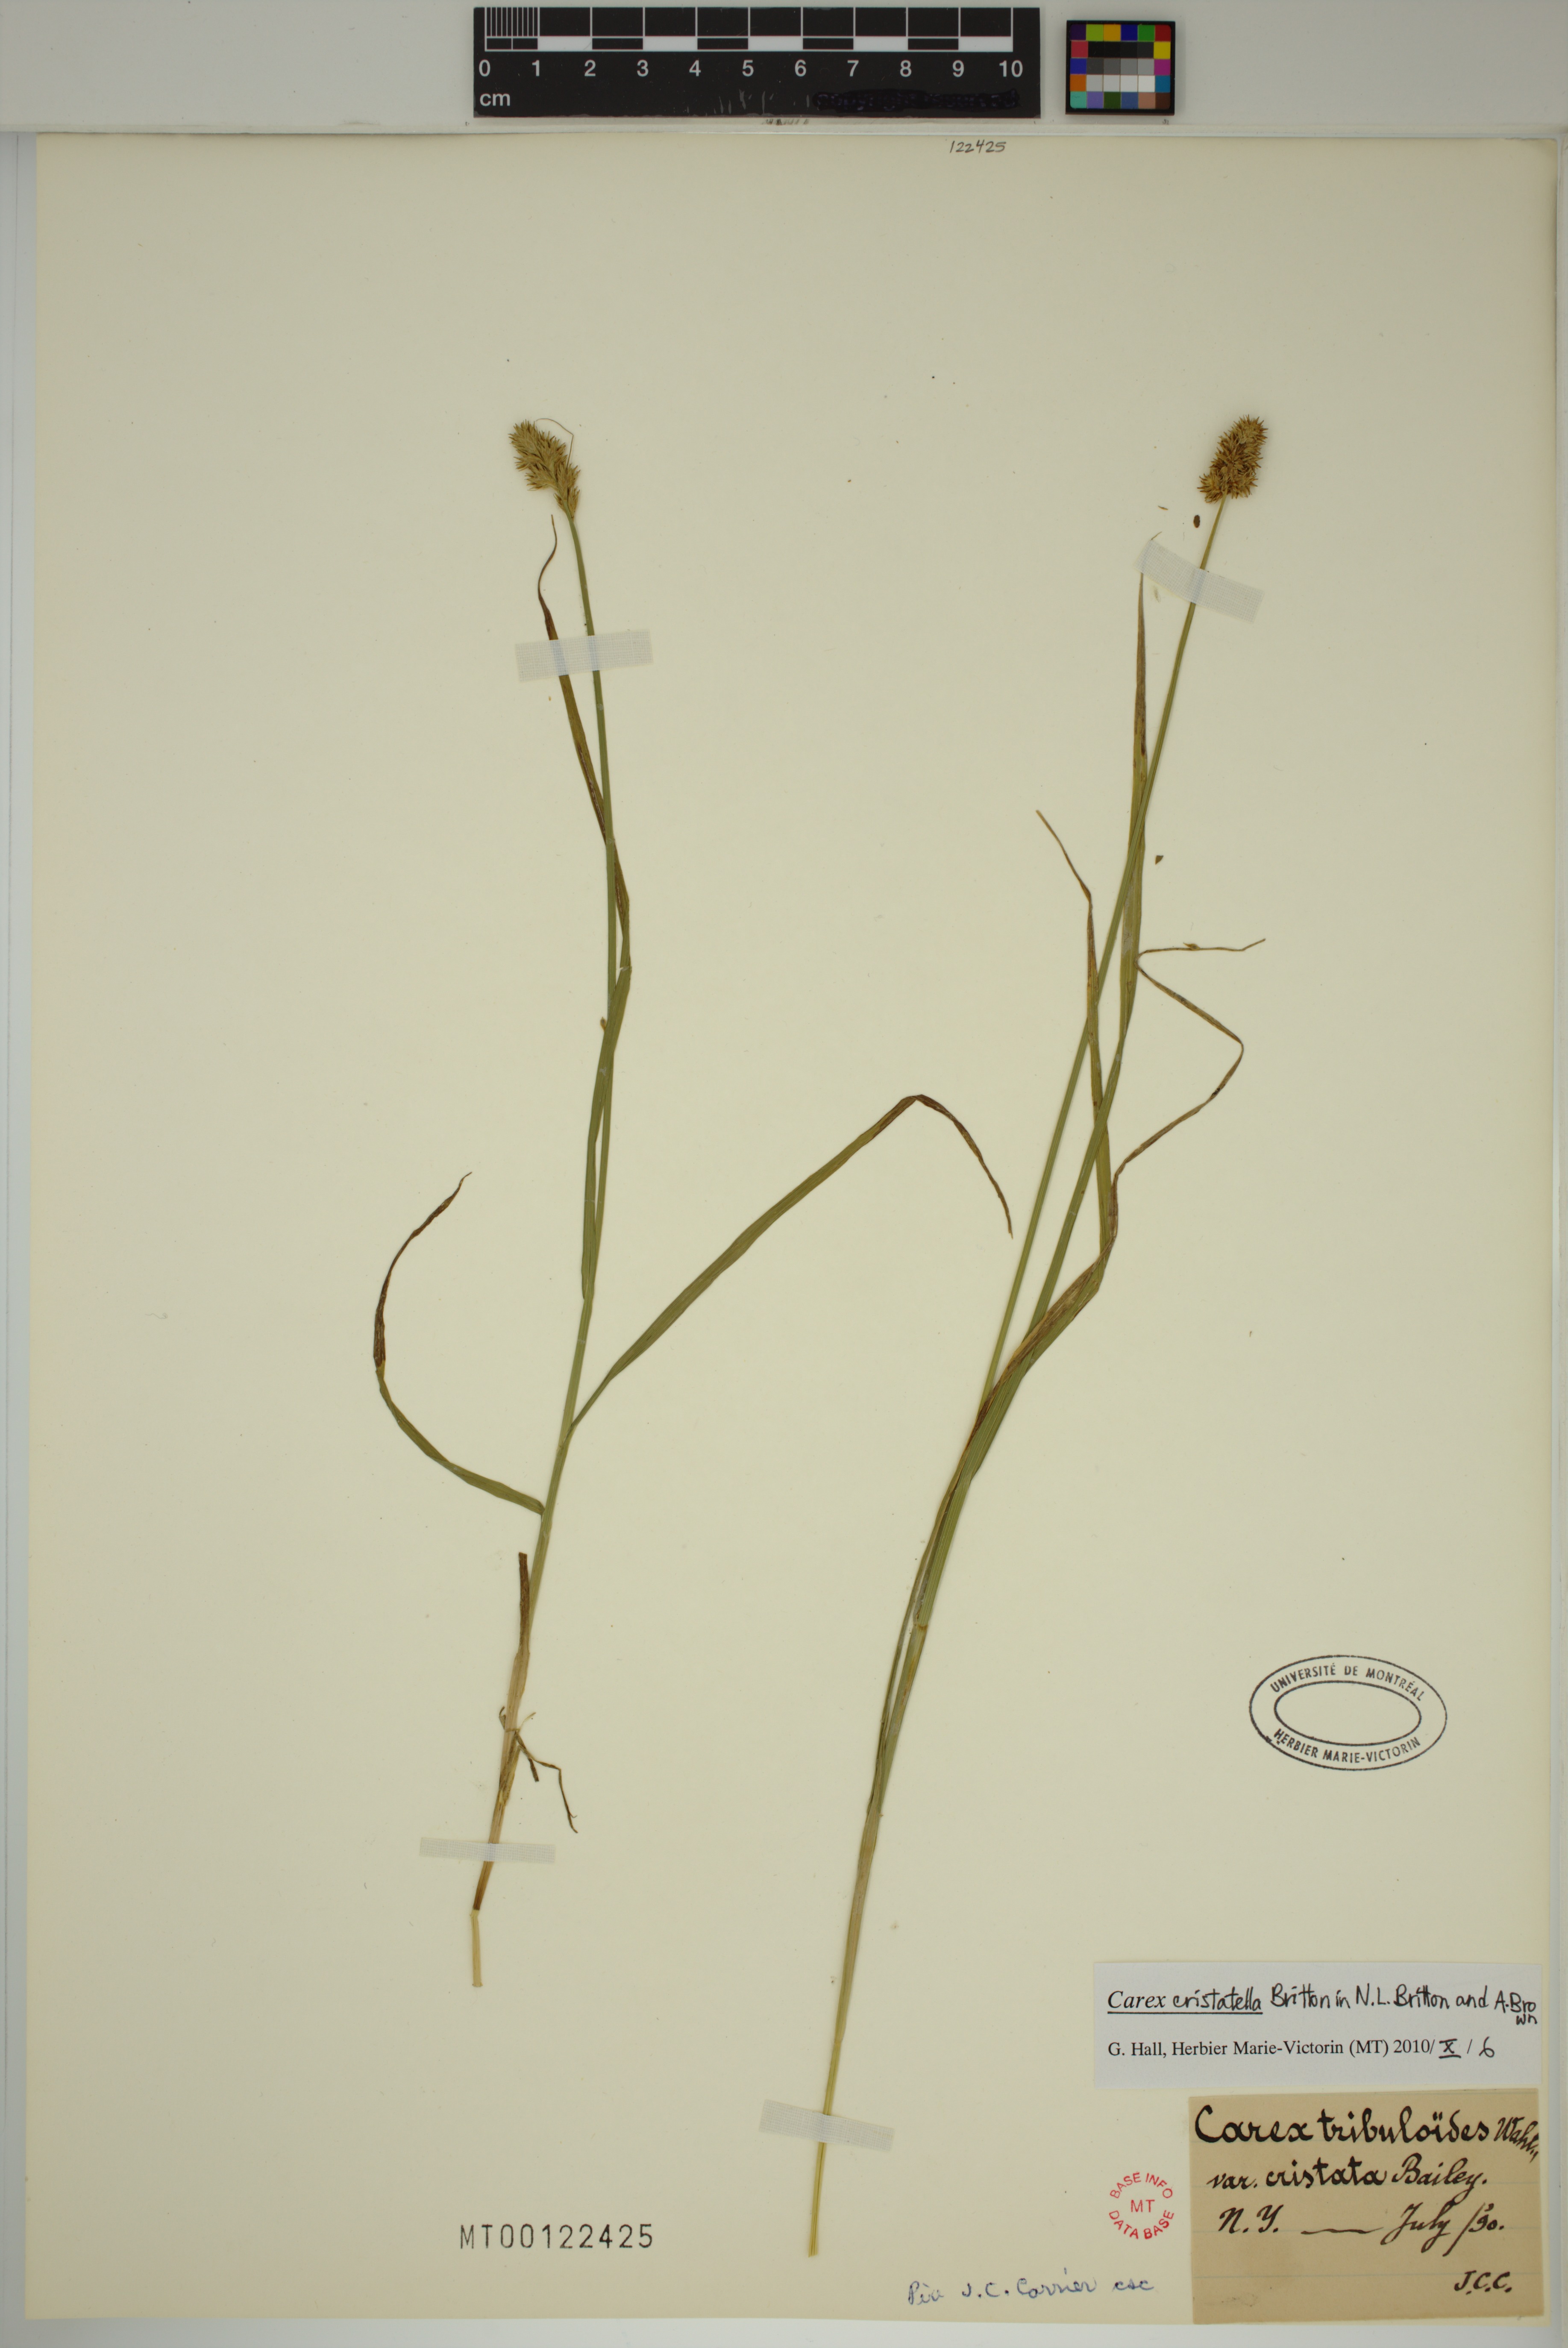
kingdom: Plantae
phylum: Tracheophyta
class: Liliopsida
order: Poales
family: Cyperaceae
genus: Carex
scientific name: Carex cristatella
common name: Crested oval sedge
